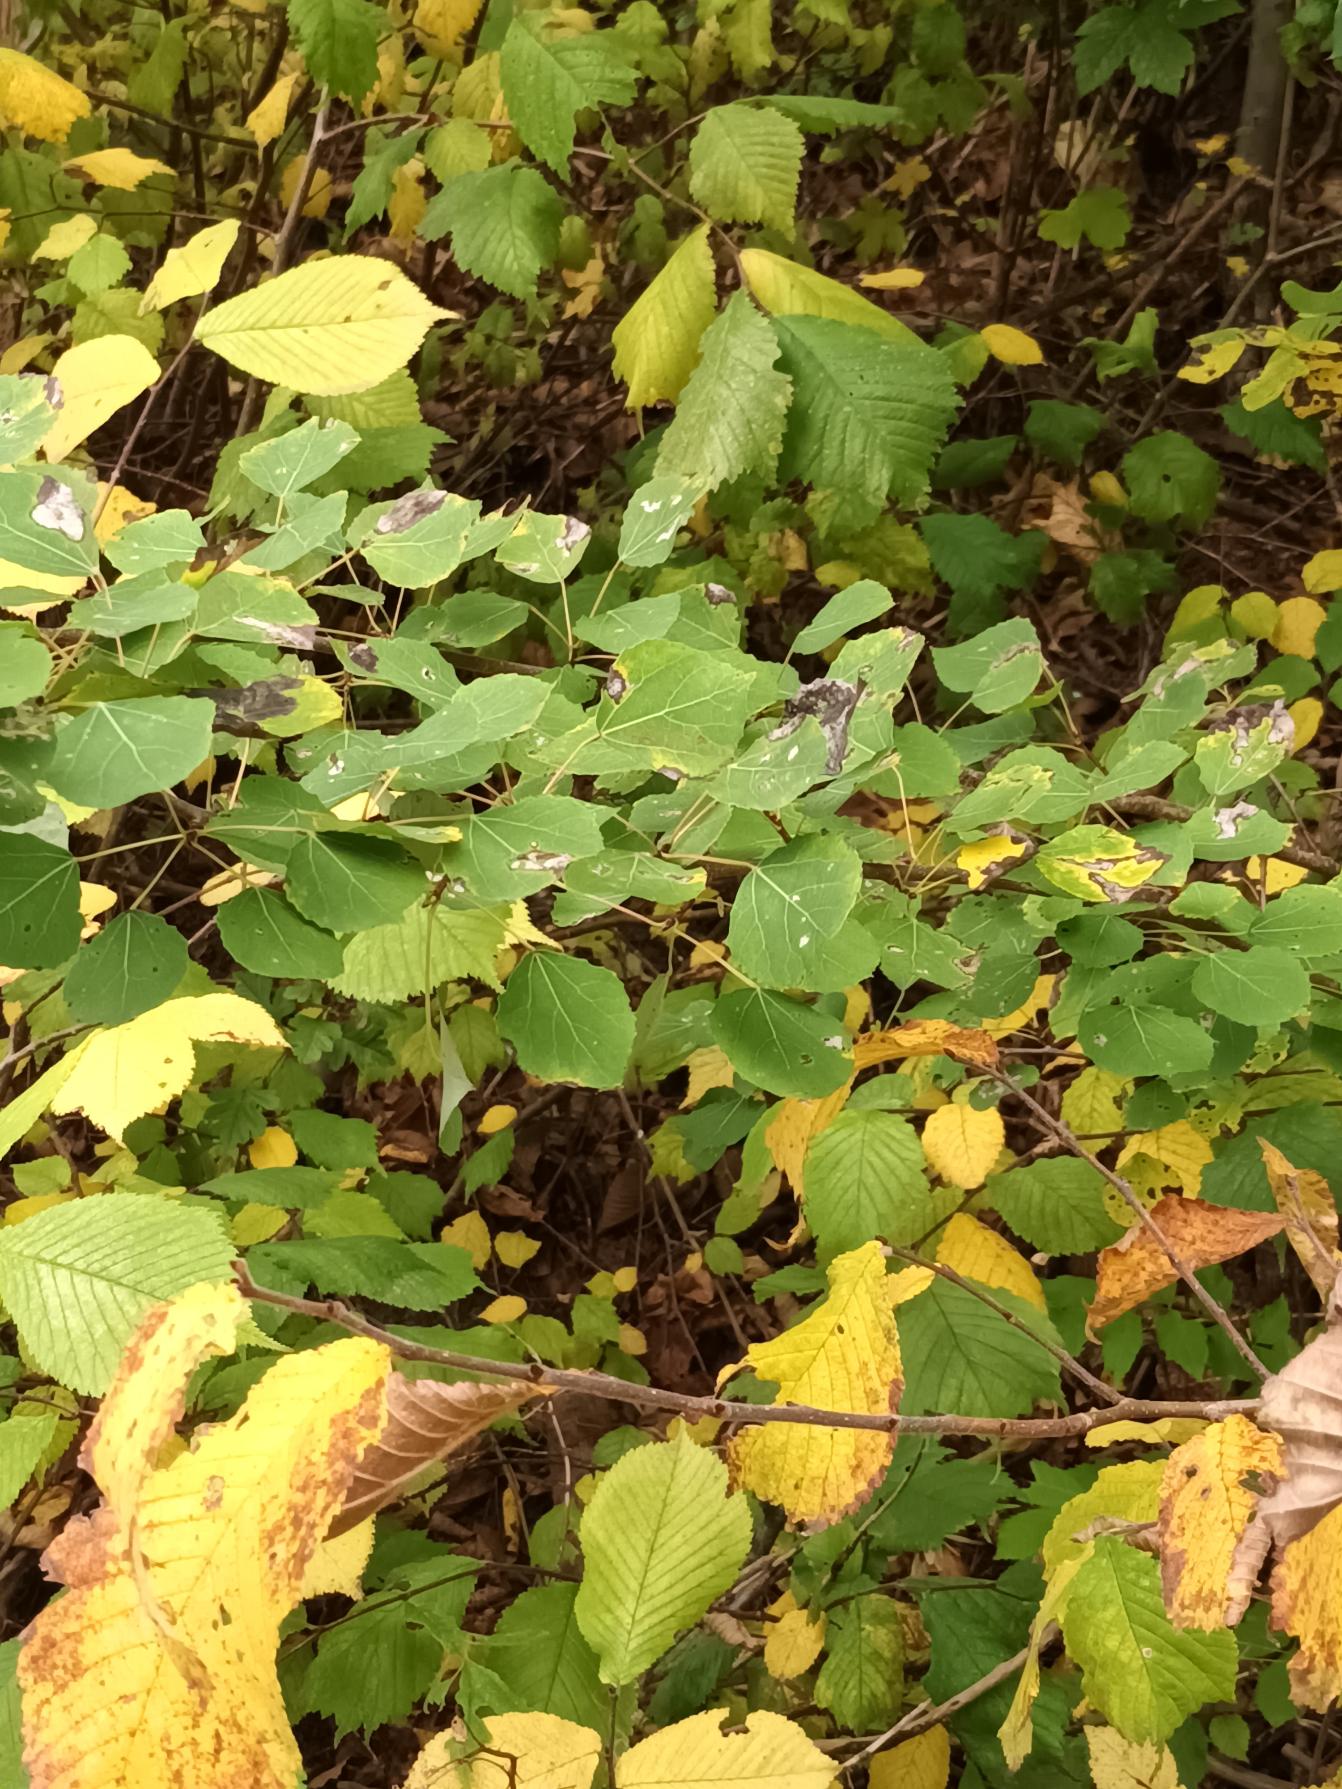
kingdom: Plantae
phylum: Tracheophyta
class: Magnoliopsida
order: Malpighiales
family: Salicaceae
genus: Populus
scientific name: Populus tremula
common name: Bævreasp
